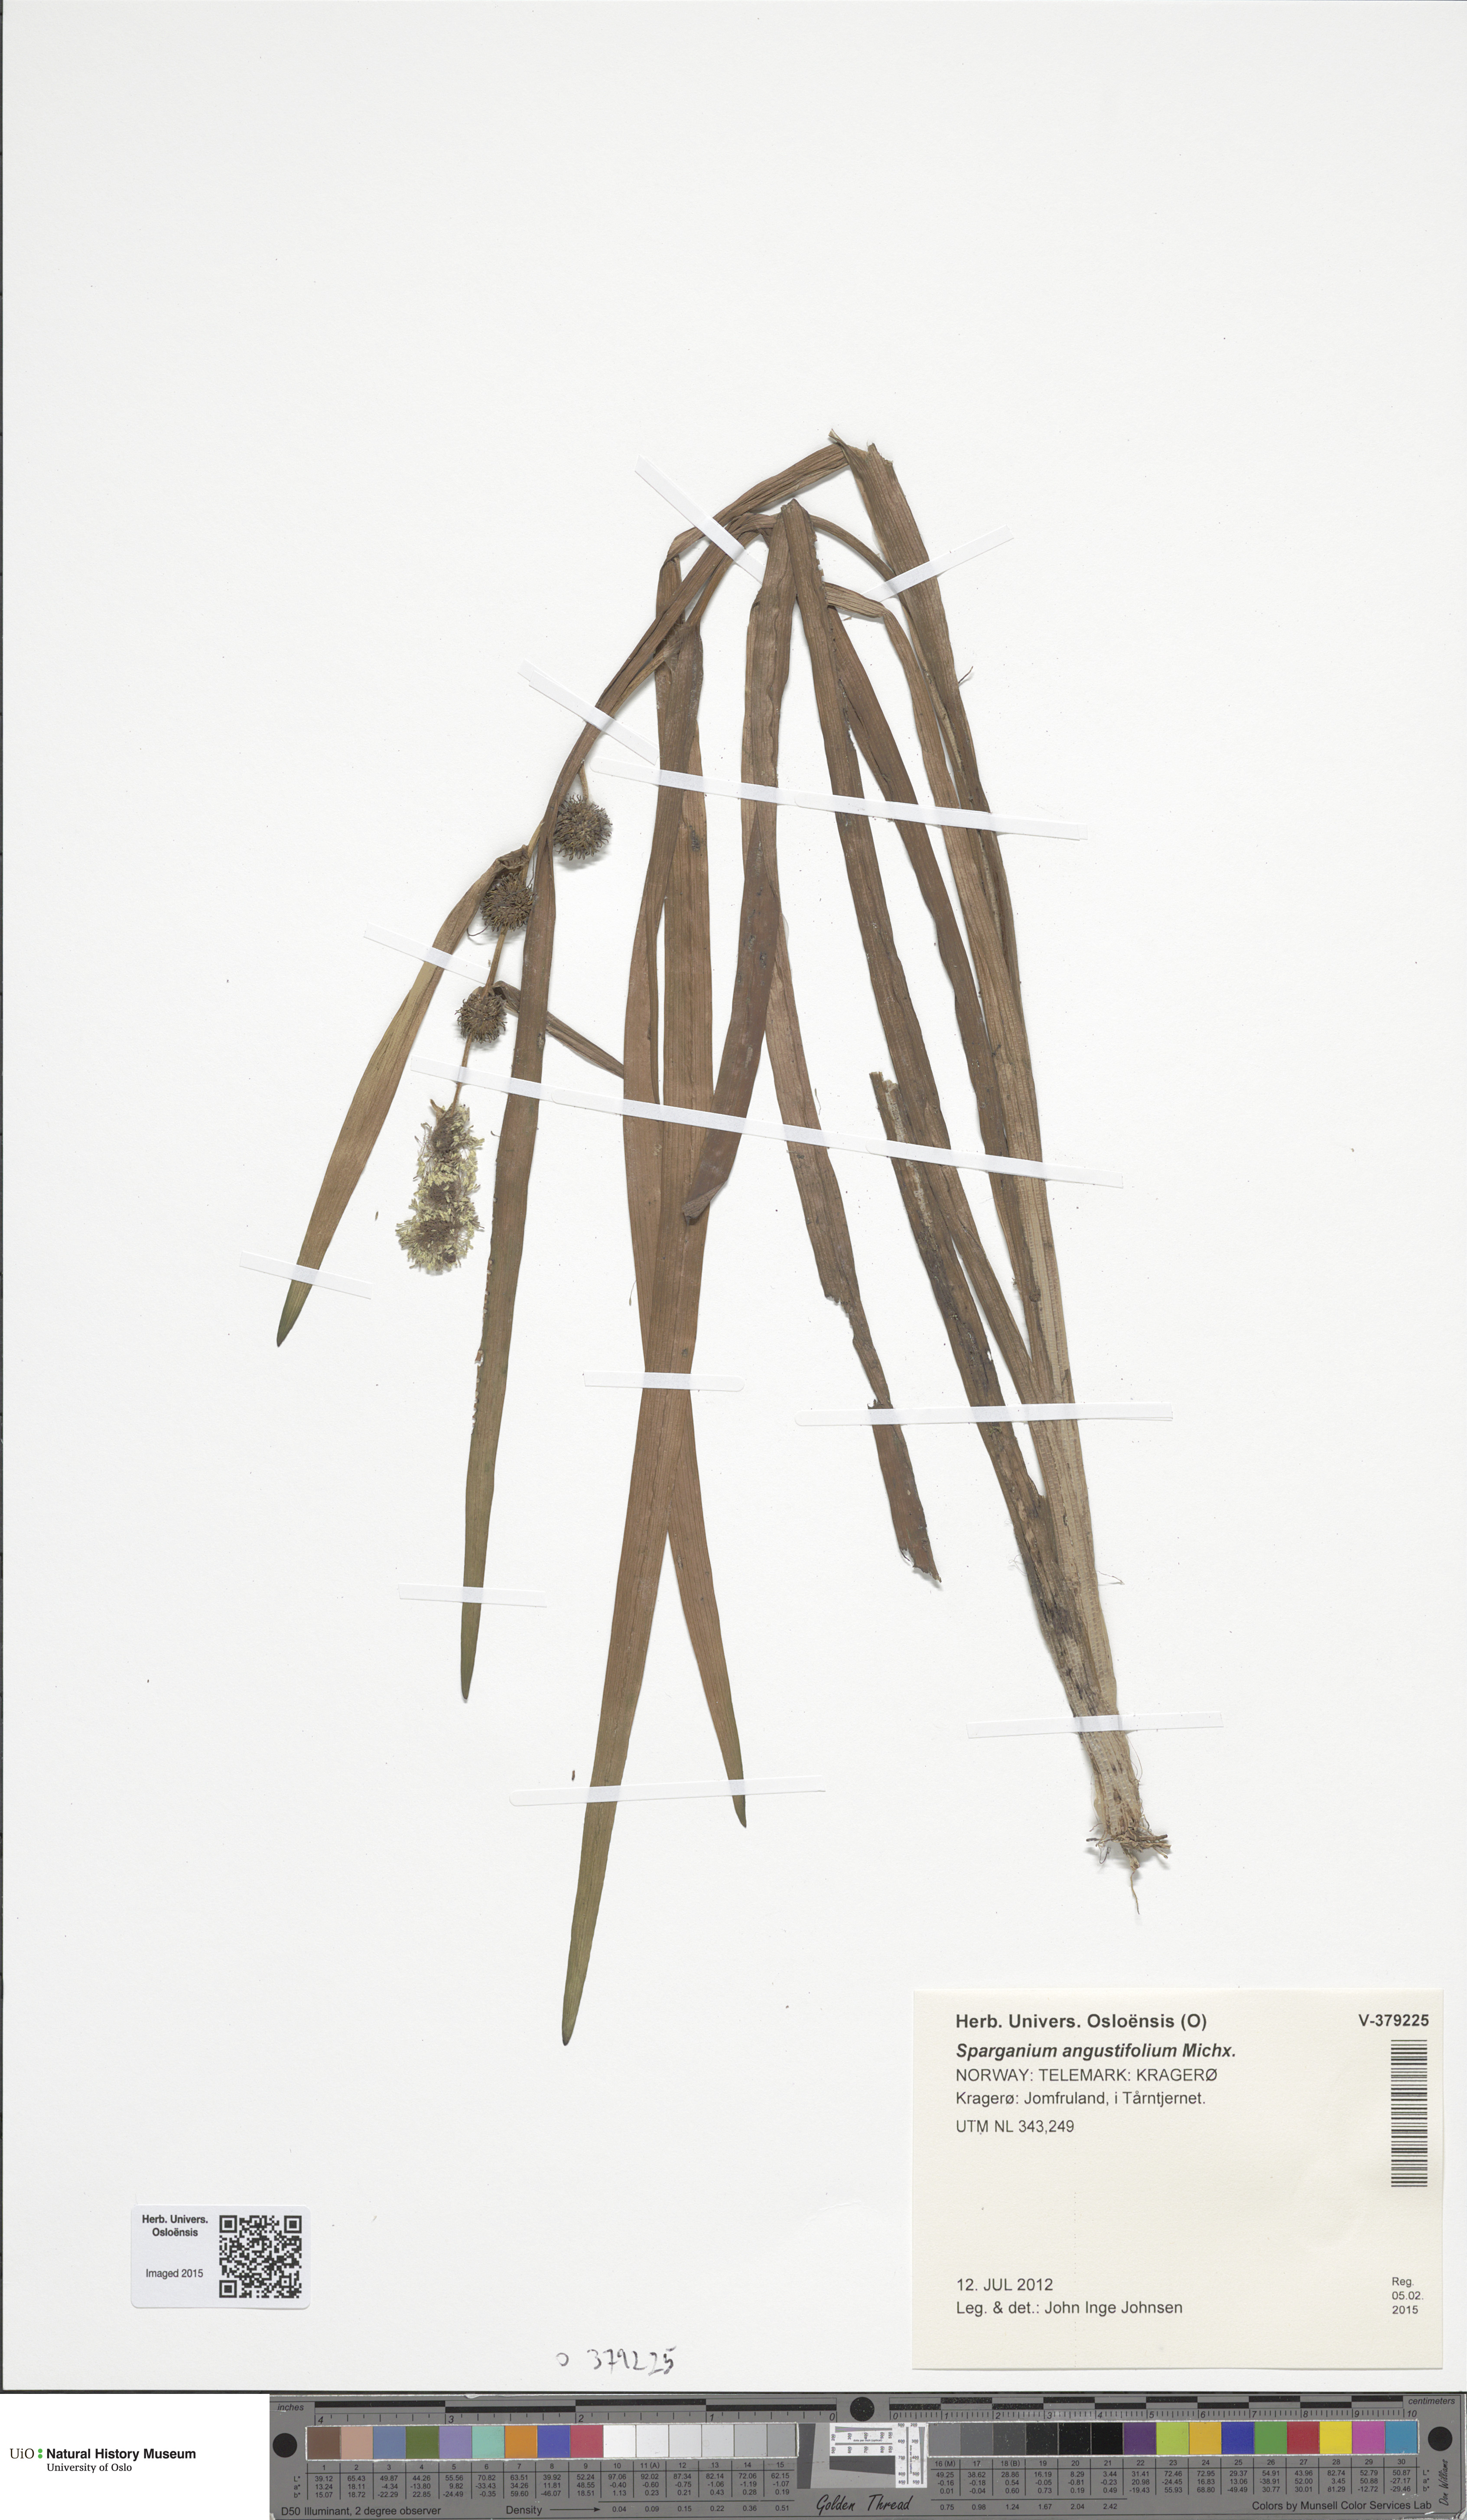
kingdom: Plantae
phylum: Tracheophyta
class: Liliopsida
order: Poales
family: Typhaceae
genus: Sparganium
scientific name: Sparganium emersum
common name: Unbranched bur-reed
